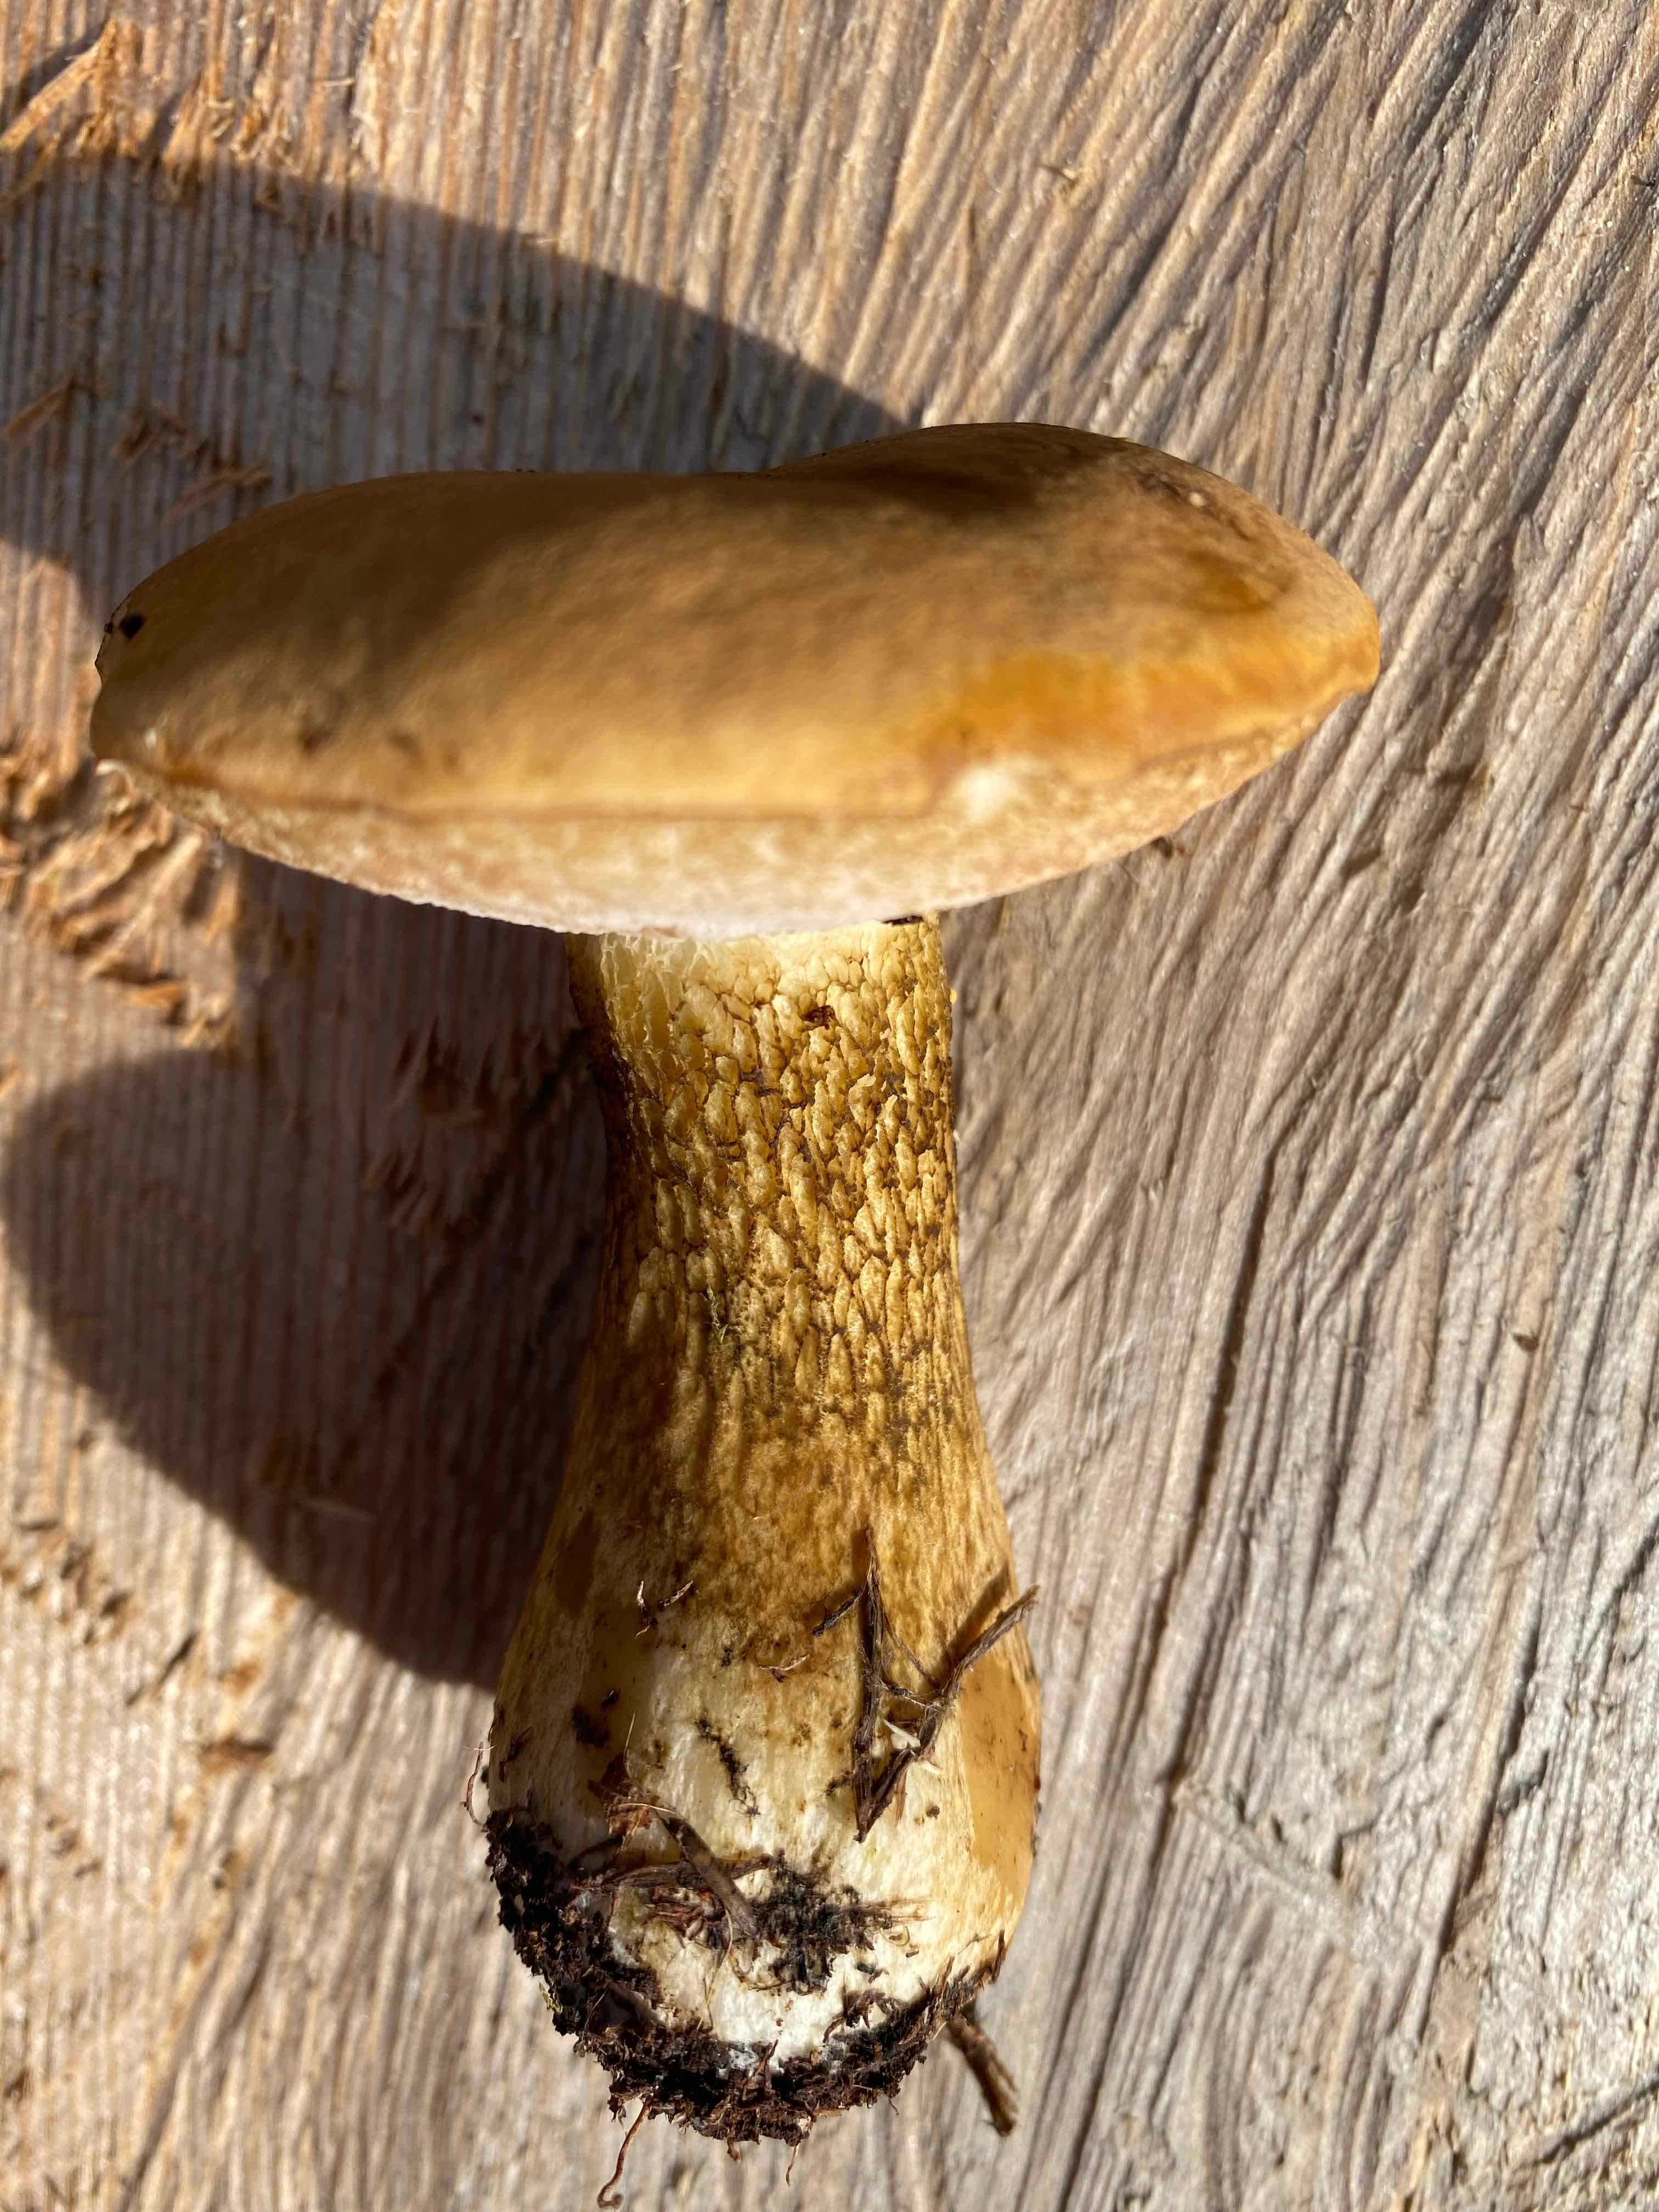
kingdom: Fungi
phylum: Basidiomycota
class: Agaricomycetes
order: Boletales
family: Boletaceae
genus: Tylopilus
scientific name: Tylopilus felleus
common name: galderørhat
